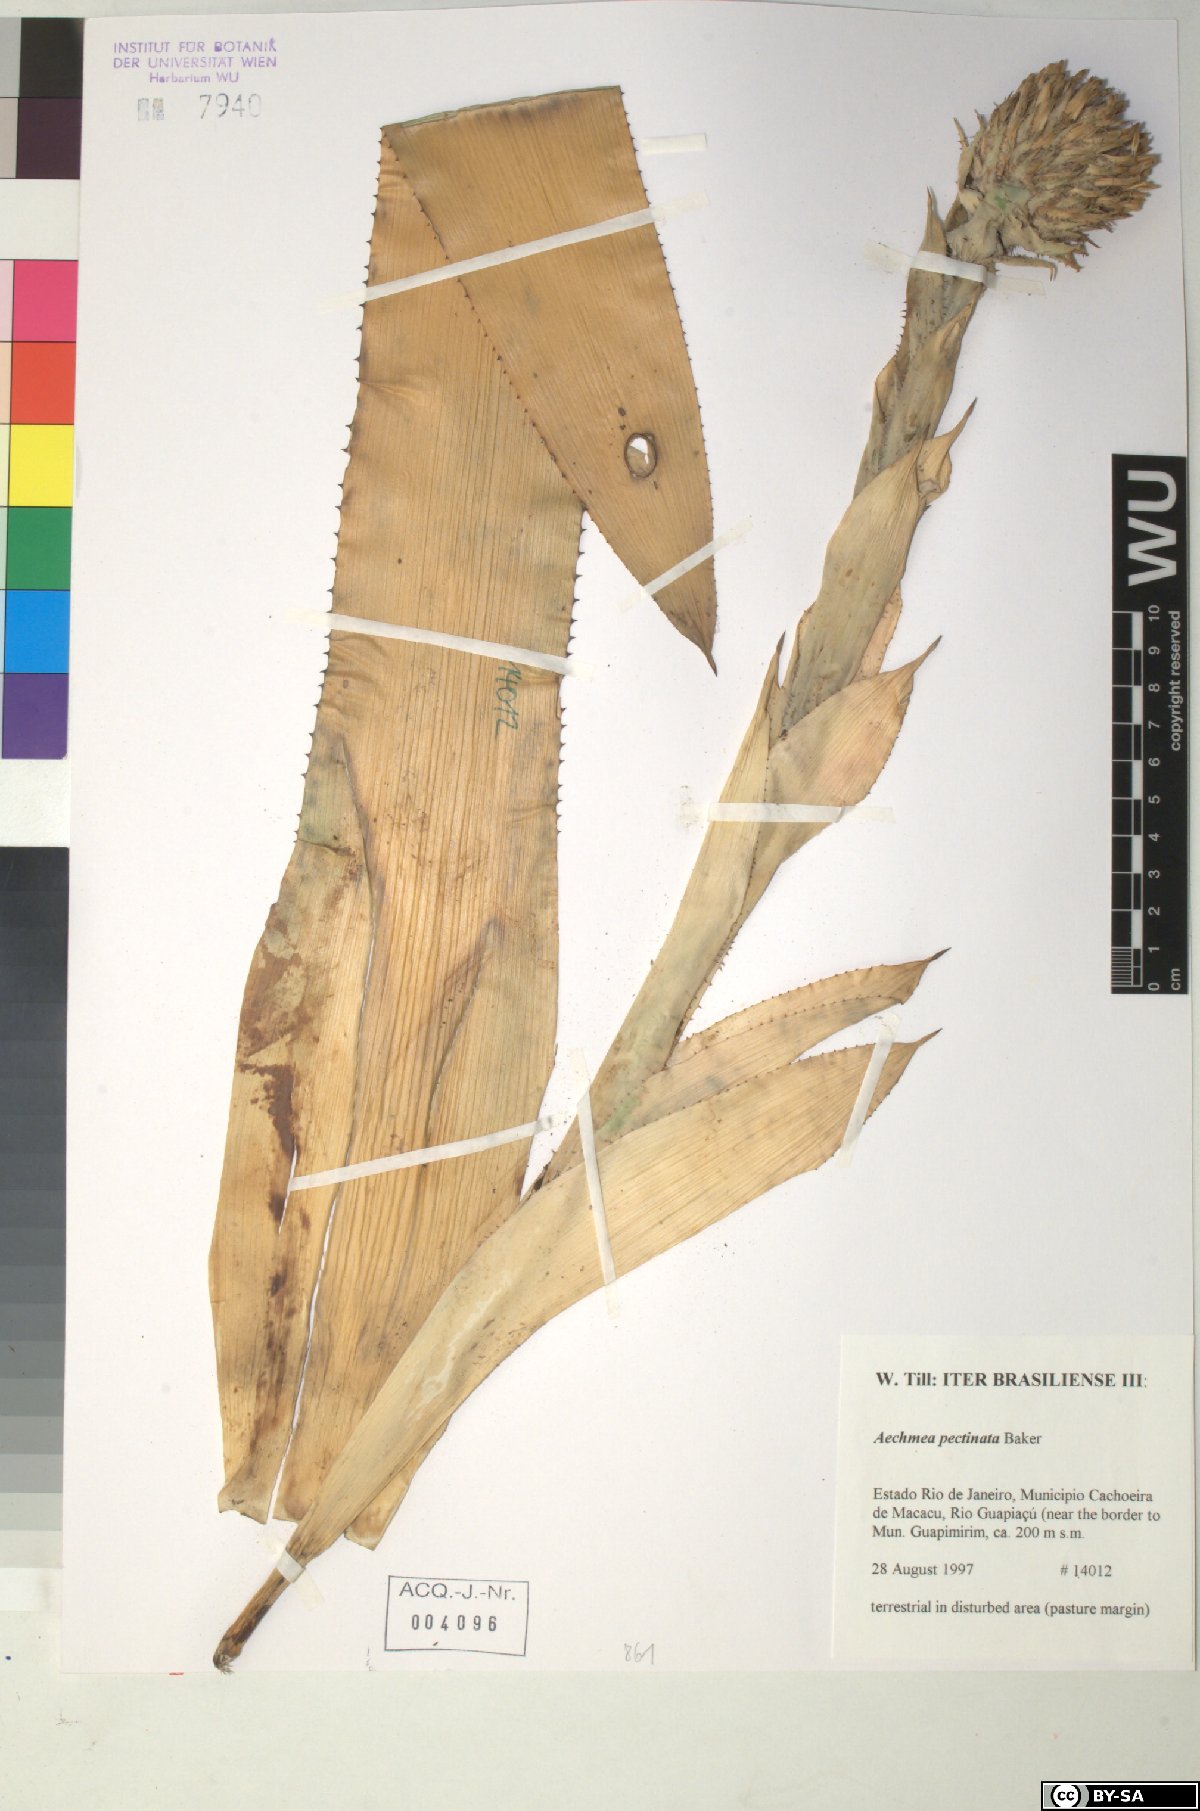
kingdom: Plantae
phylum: Tracheophyta
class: Liliopsida
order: Poales
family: Bromeliaceae
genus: Aechmea
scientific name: Aechmea pectinata
